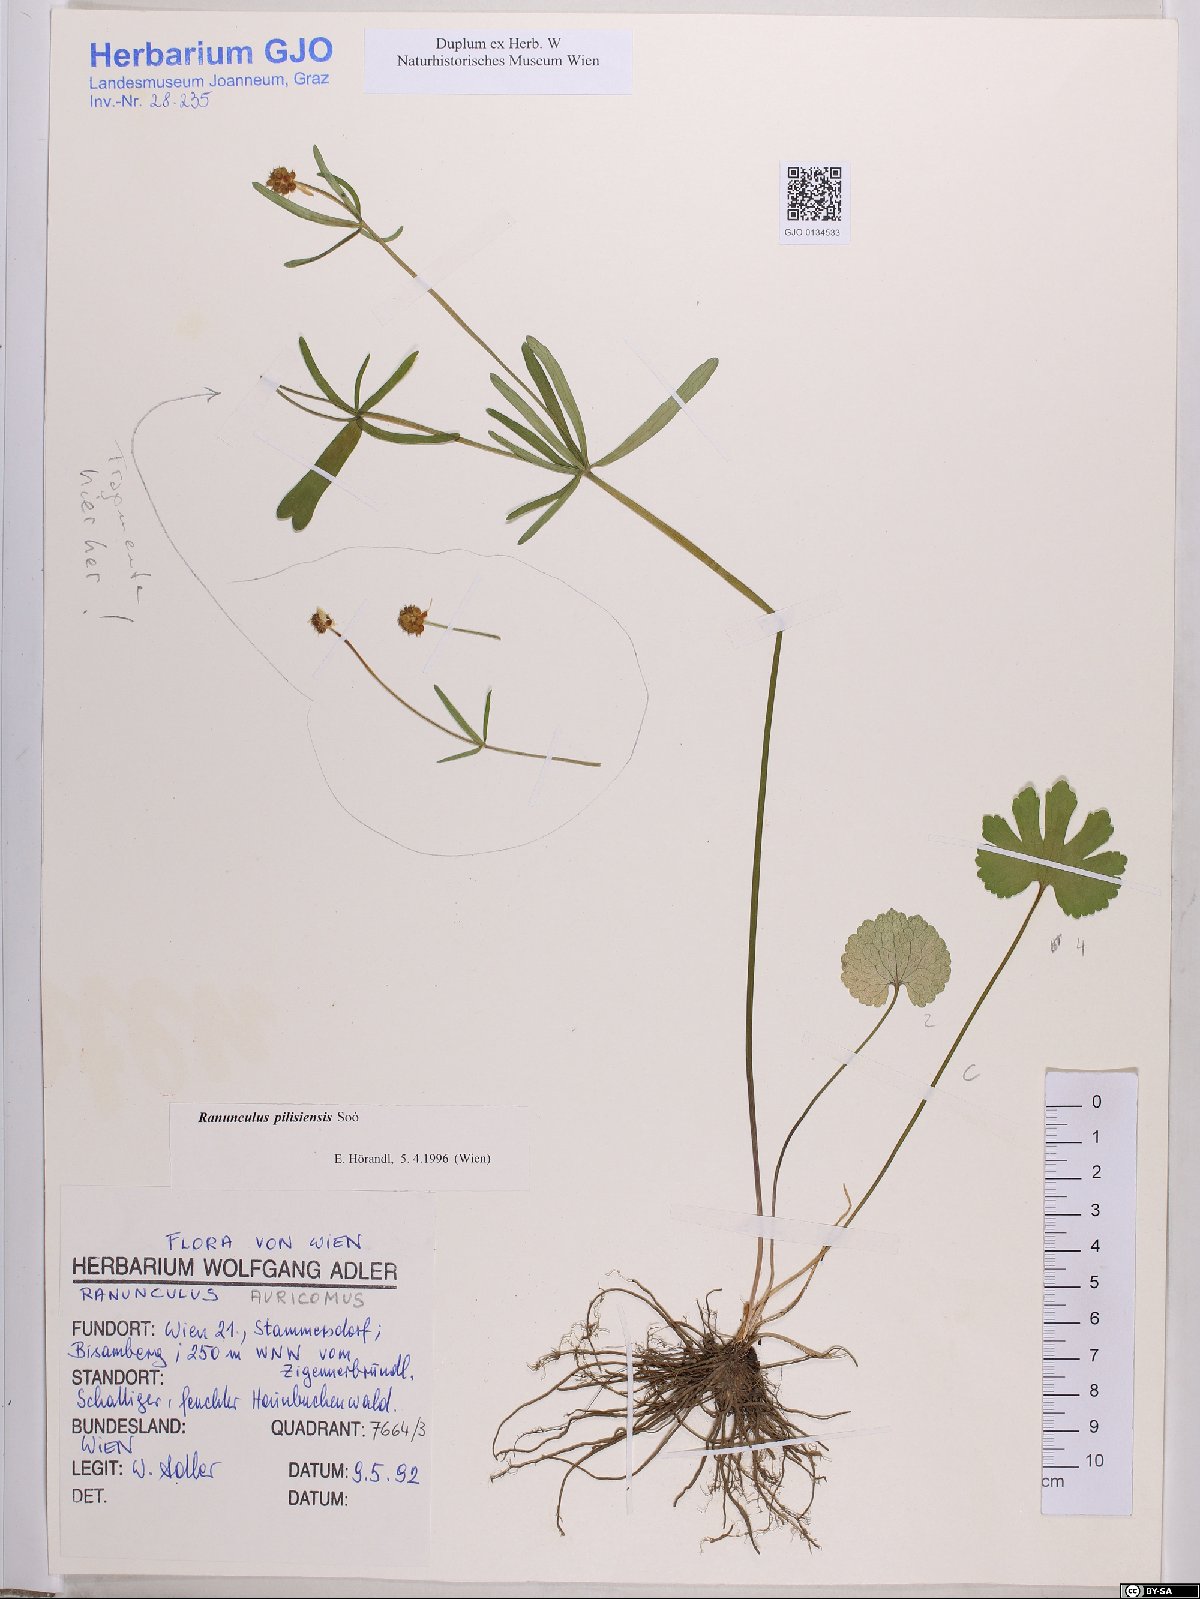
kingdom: Plantae
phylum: Tracheophyta
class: Magnoliopsida
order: Ranunculales
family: Ranunculaceae
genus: Ranunculus
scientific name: Ranunculus pilisiensis
